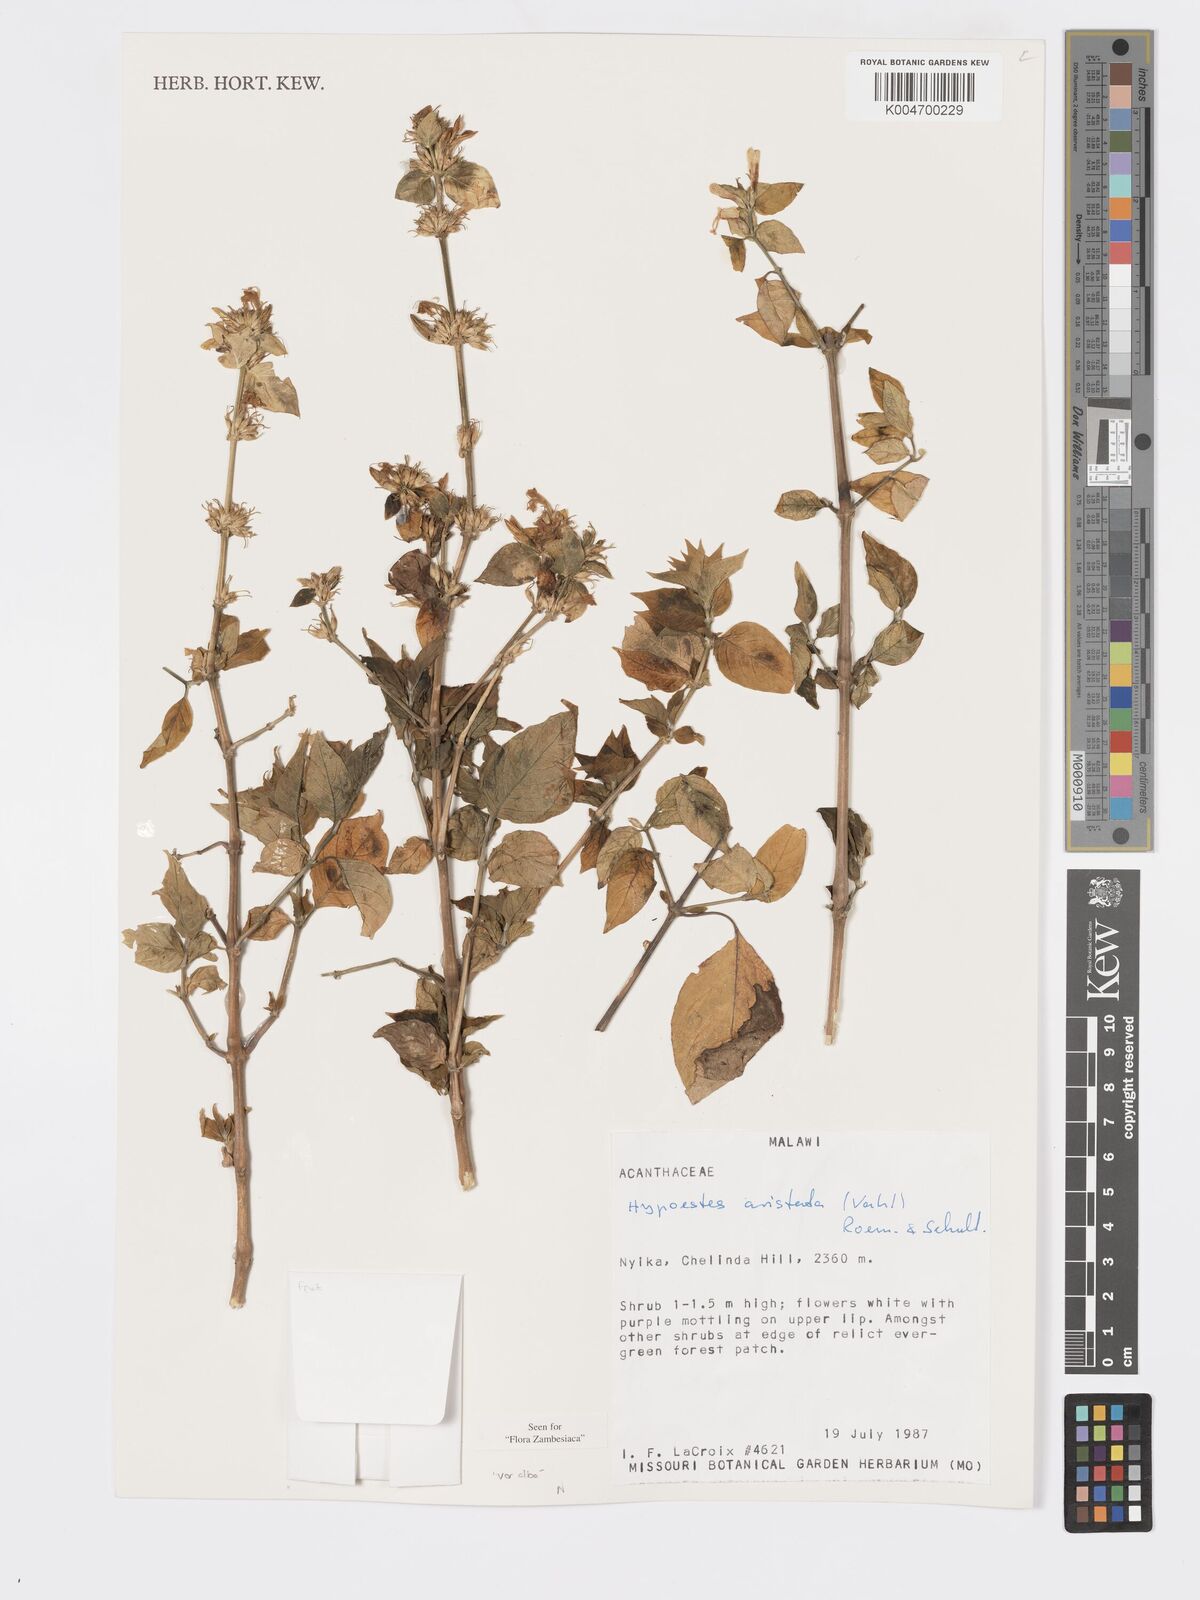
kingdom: Plantae
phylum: Tracheophyta
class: Magnoliopsida
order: Lamiales
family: Acanthaceae
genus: Hypoestes
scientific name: Hypoestes aristata
